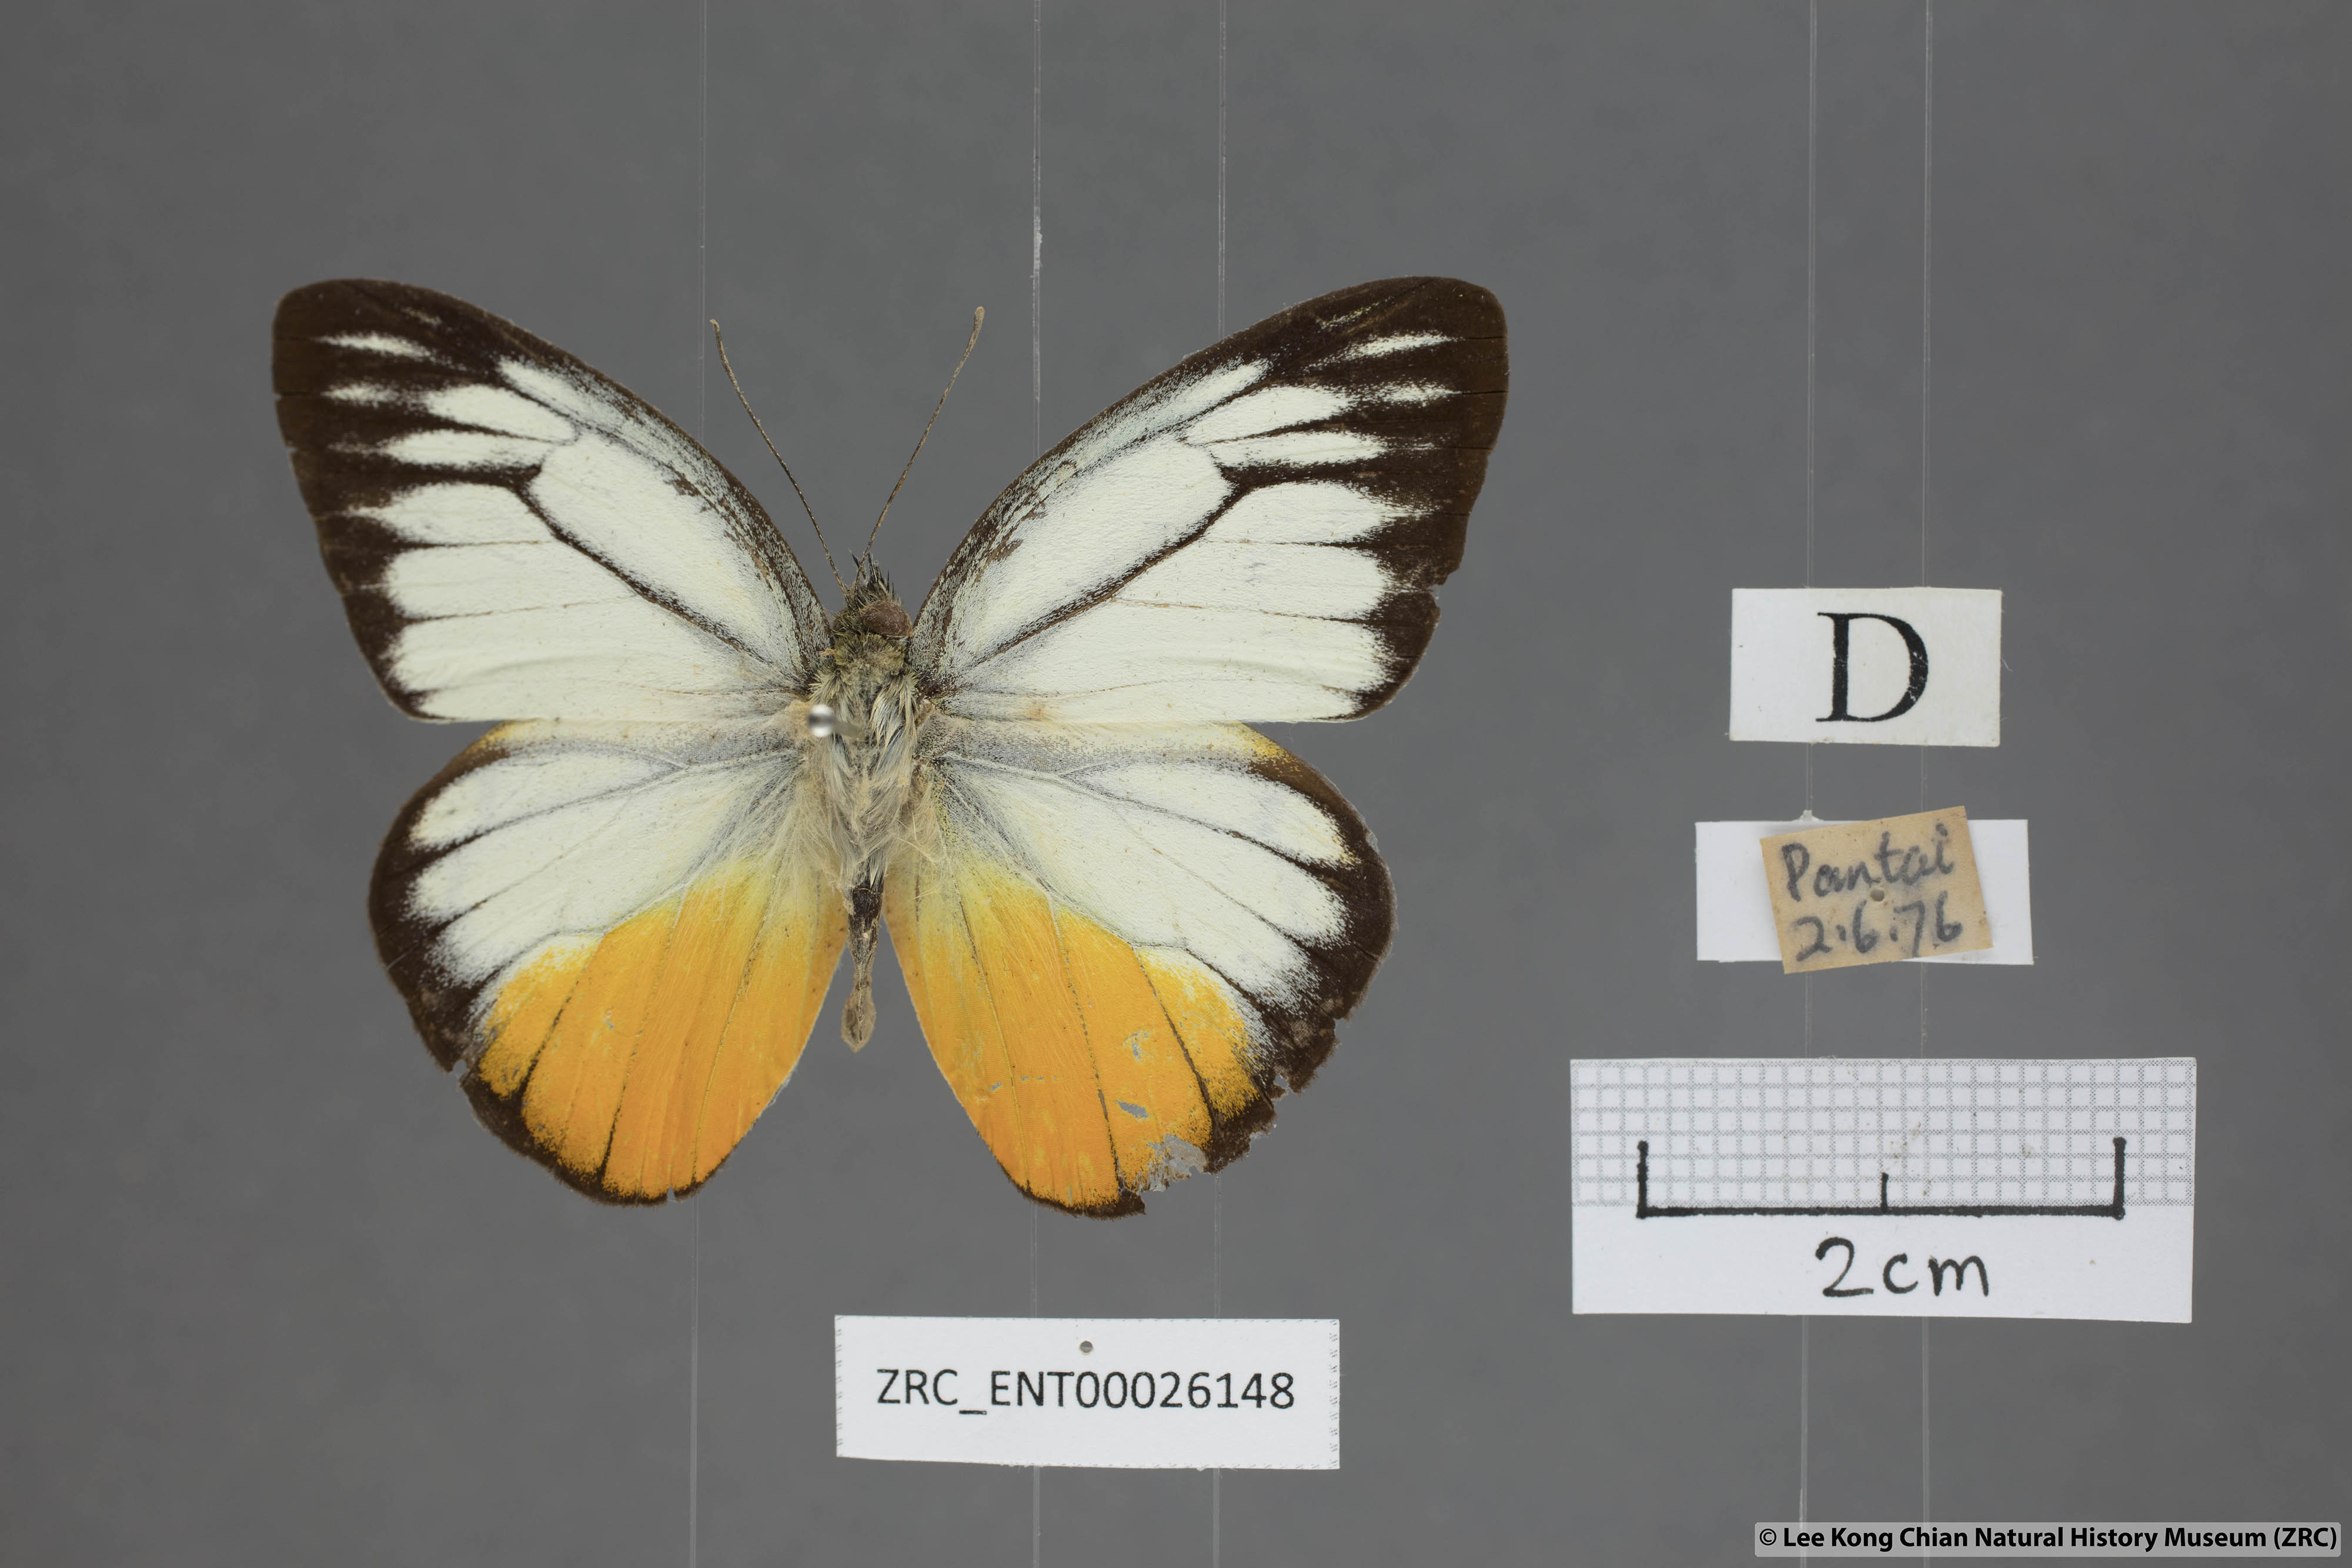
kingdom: Animalia
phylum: Arthropoda
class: Insecta
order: Lepidoptera
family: Pieridae
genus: Cepora
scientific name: Cepora julia
